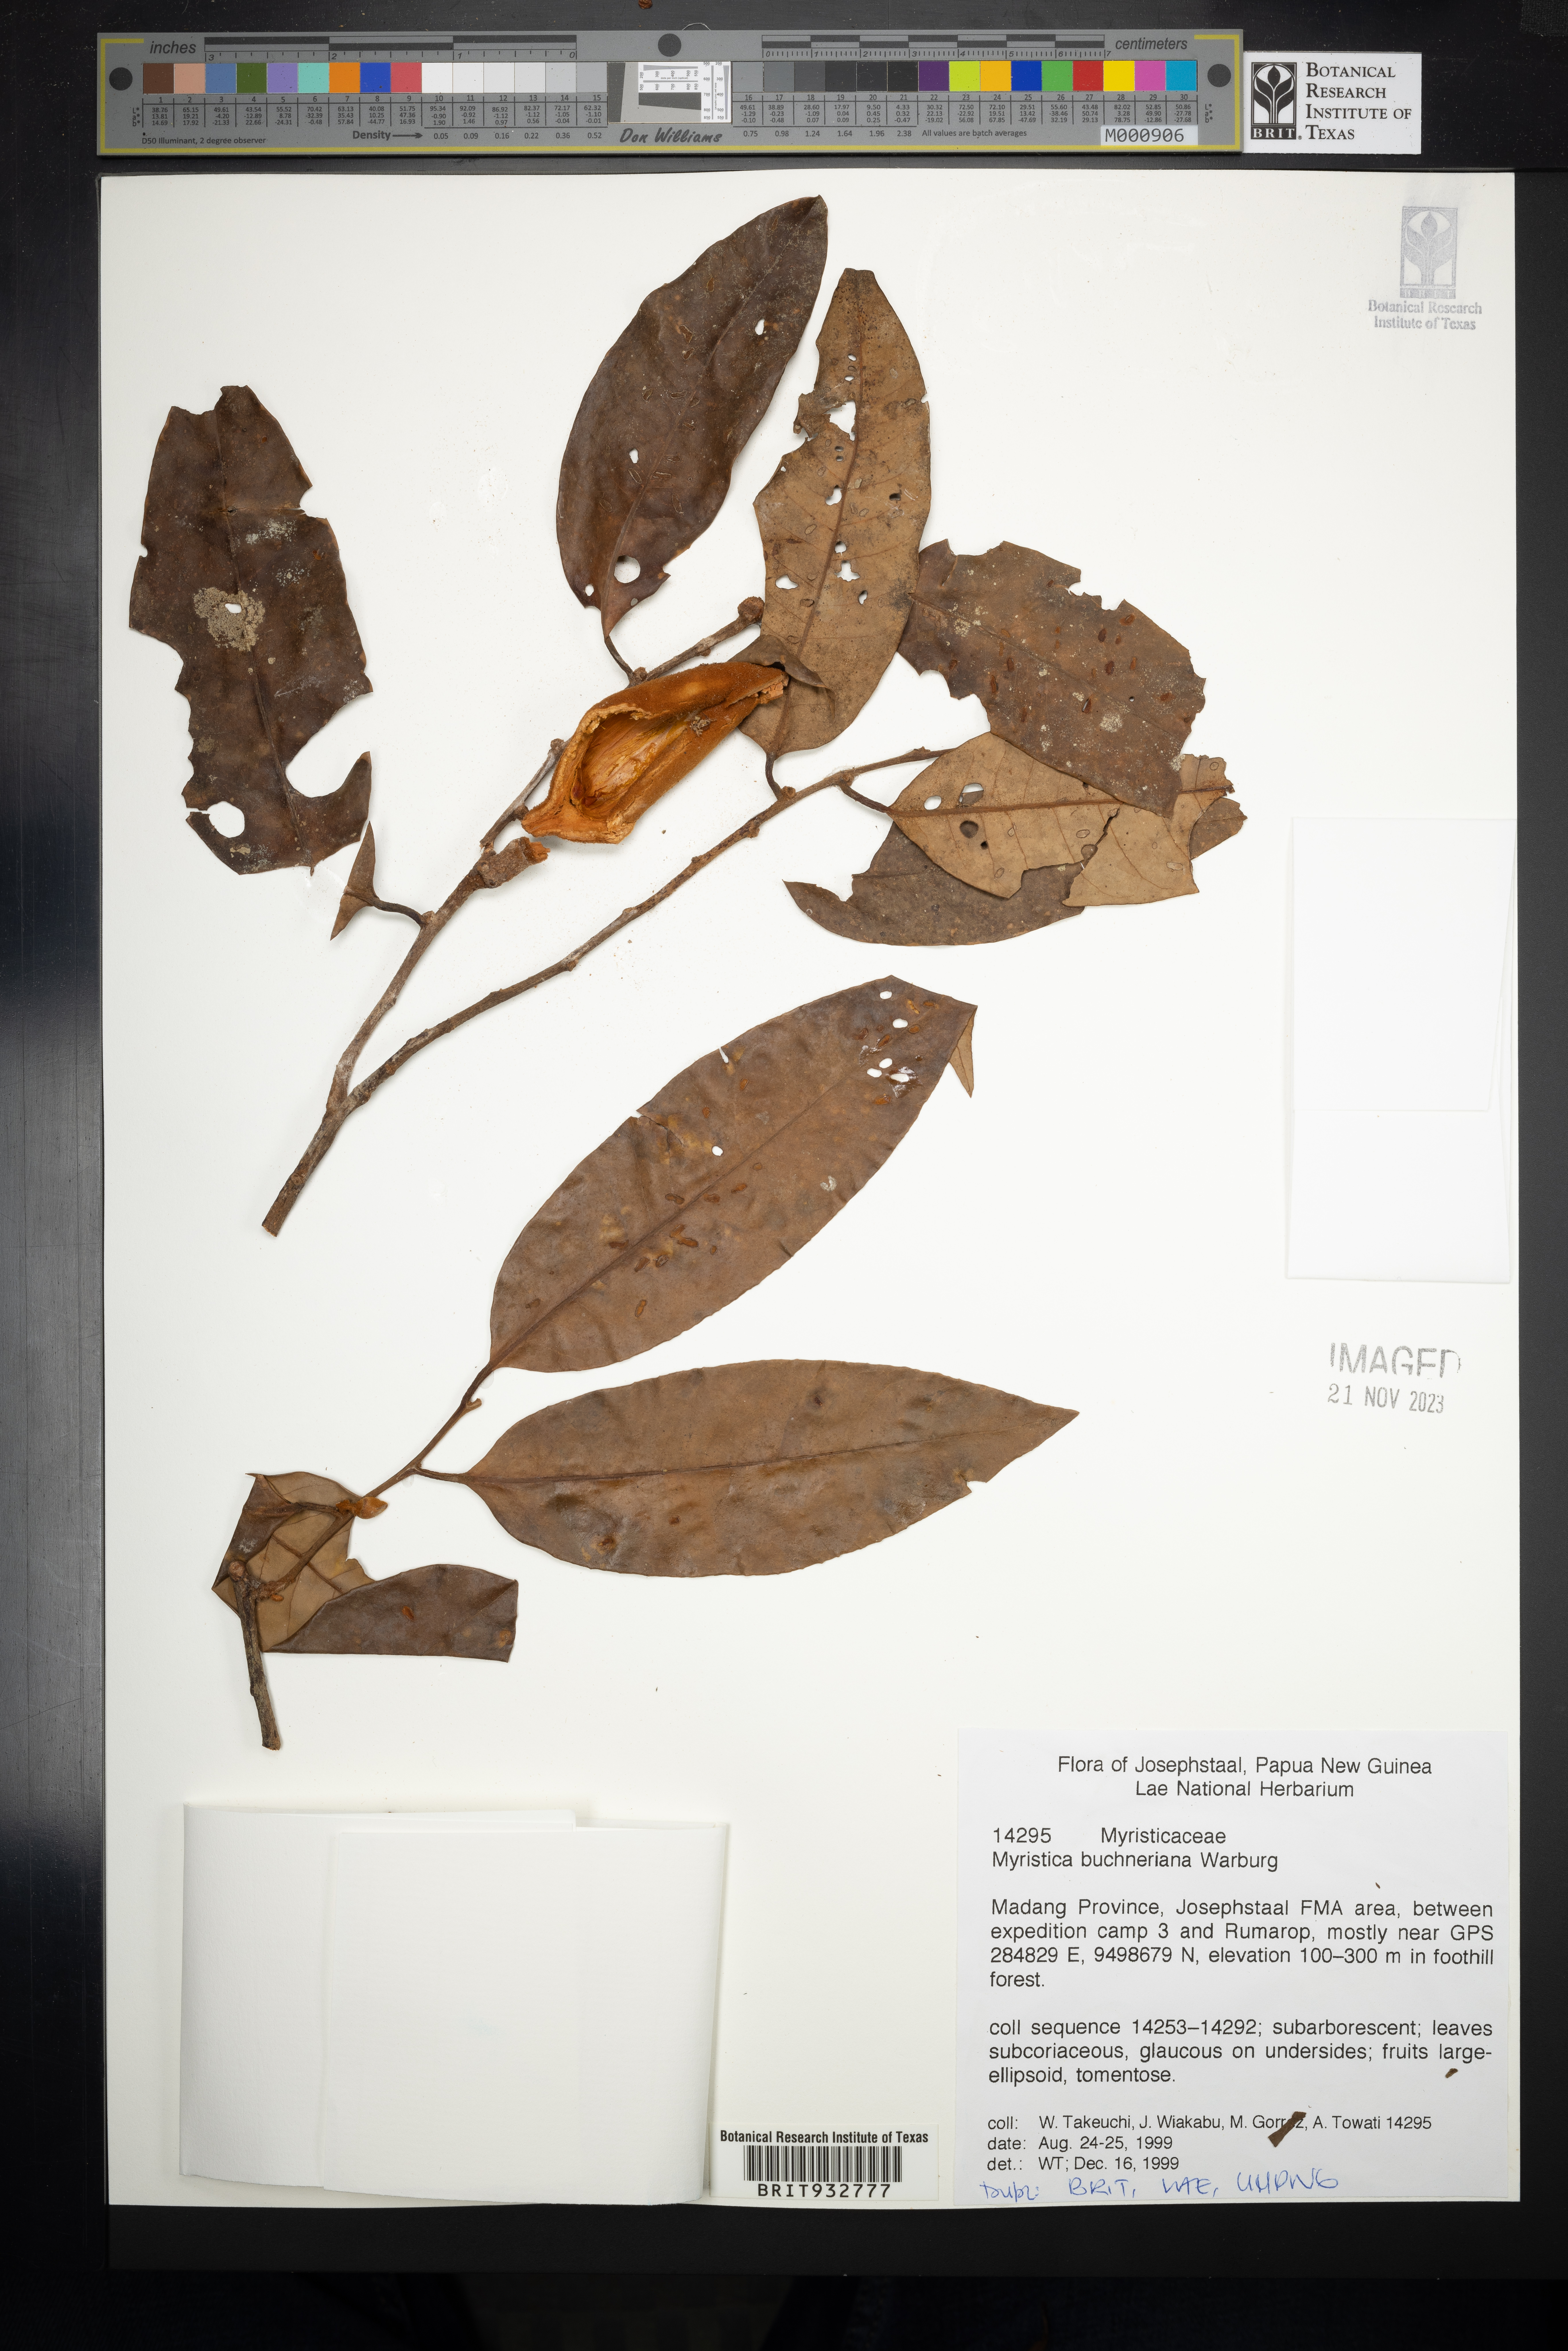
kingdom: Plantae
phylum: Tracheophyta
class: Magnoliopsida
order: Magnoliales
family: Myristicaceae
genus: Myristica
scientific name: Myristica
